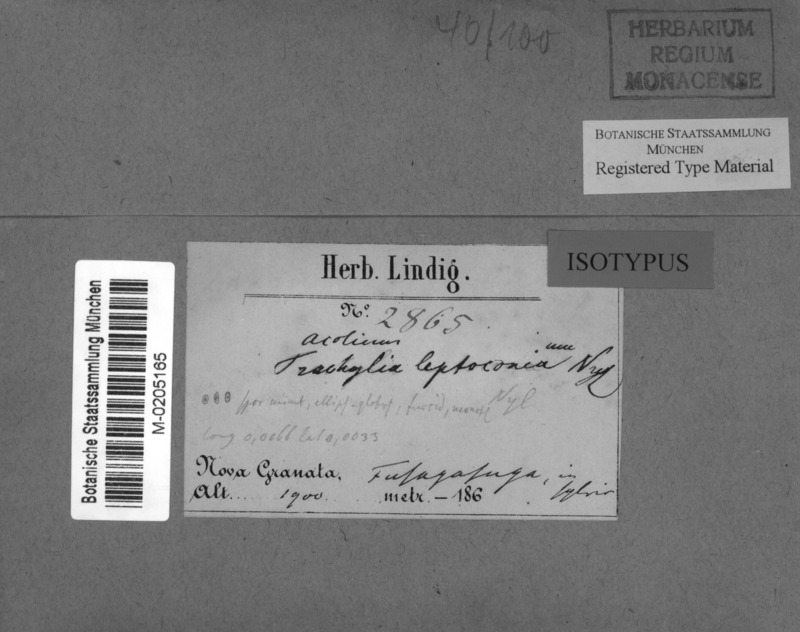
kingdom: Fungi
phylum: Ascomycota
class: Eurotiomycetes
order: Mycocaliciales
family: Sphinctrinaceae
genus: Pyrgidium
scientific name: Pyrgidium montellicum
